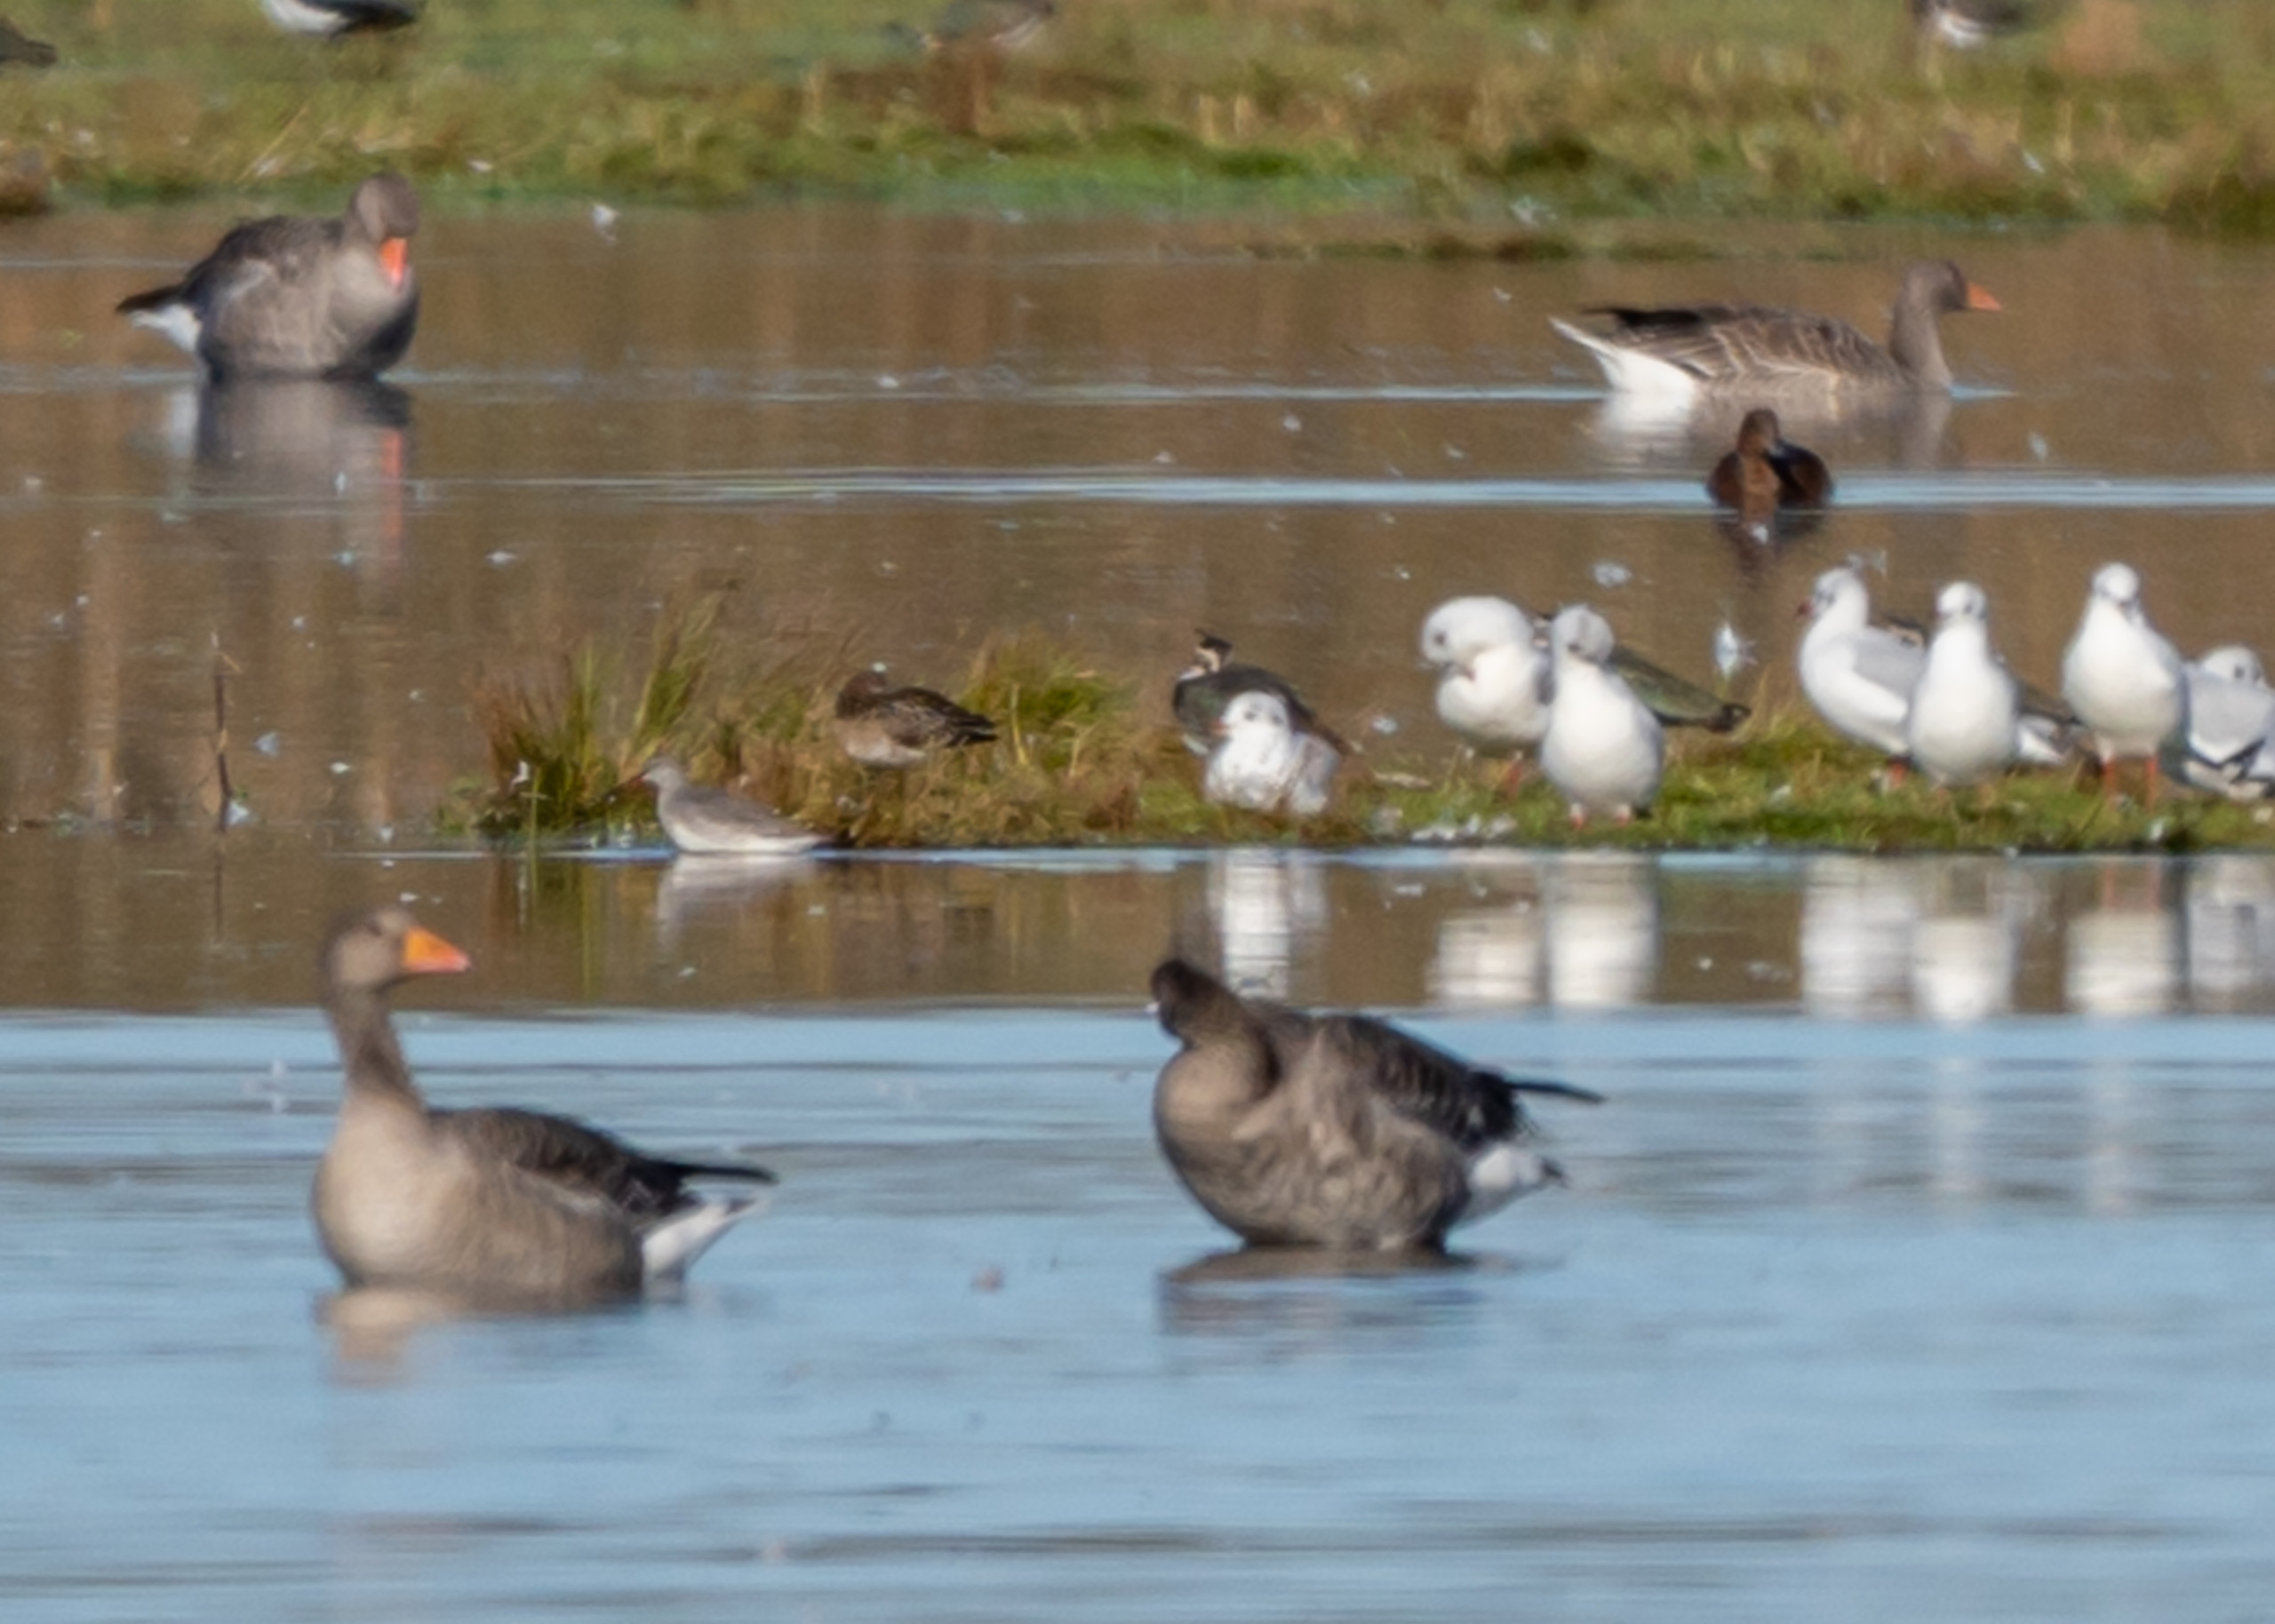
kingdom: Animalia
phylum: Chordata
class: Aves
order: Charadriiformes
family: Scolopacidae
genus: Tringa
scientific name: Tringa erythropus
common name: Sortklire
